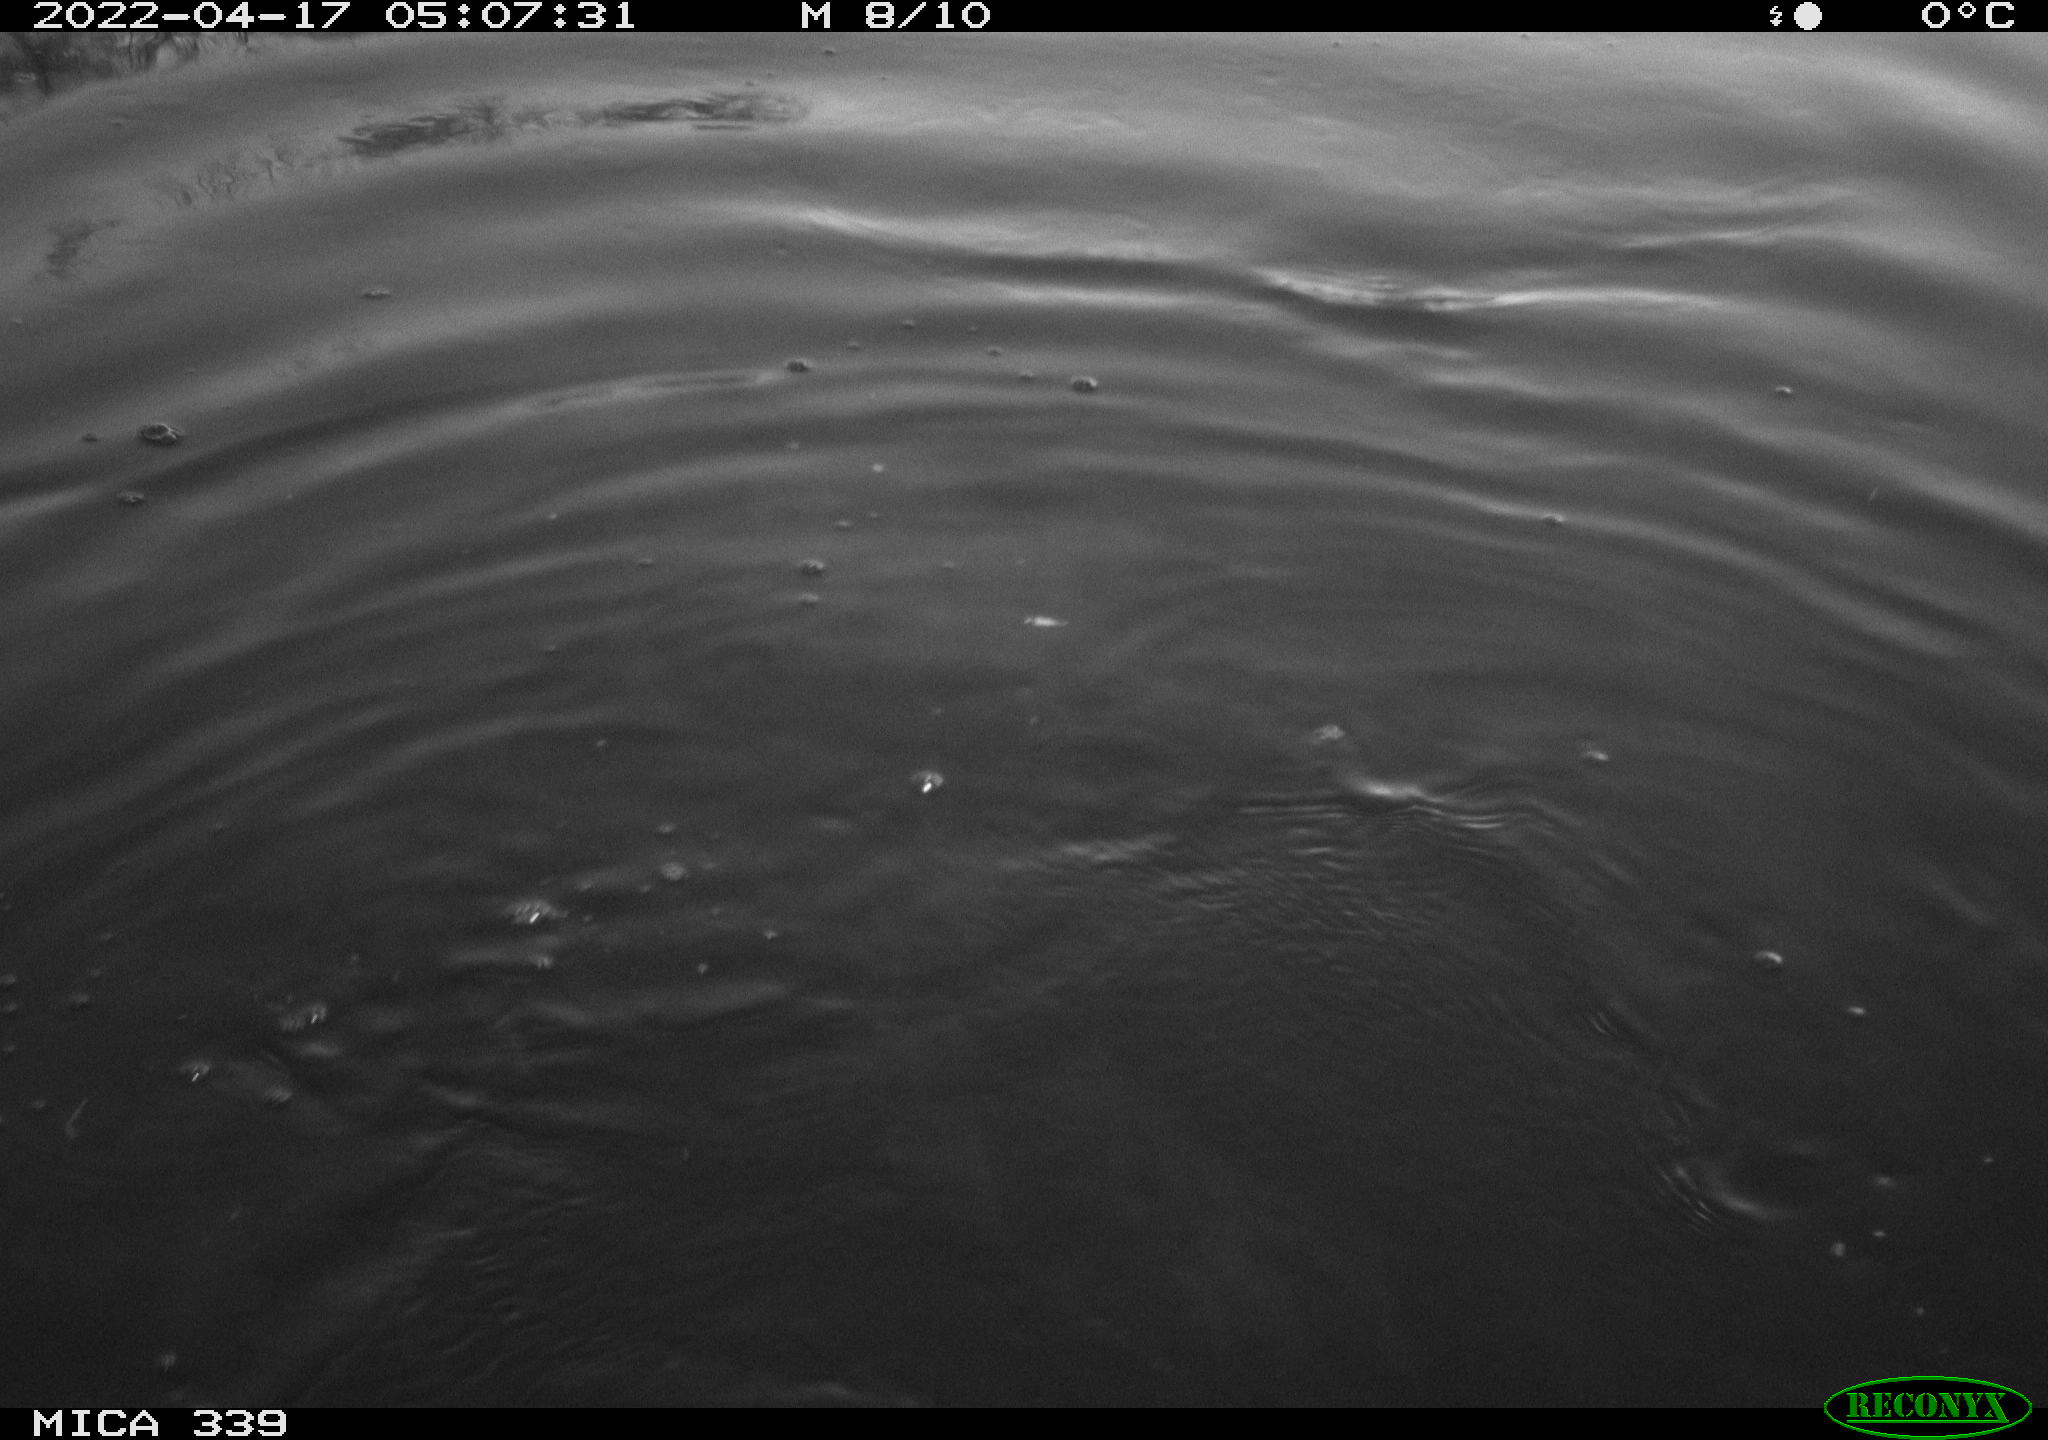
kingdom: Animalia
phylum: Chordata
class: Aves
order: Suliformes
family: Phalacrocoracidae
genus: Phalacrocorax
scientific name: Phalacrocorax carbo
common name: Great cormorant
